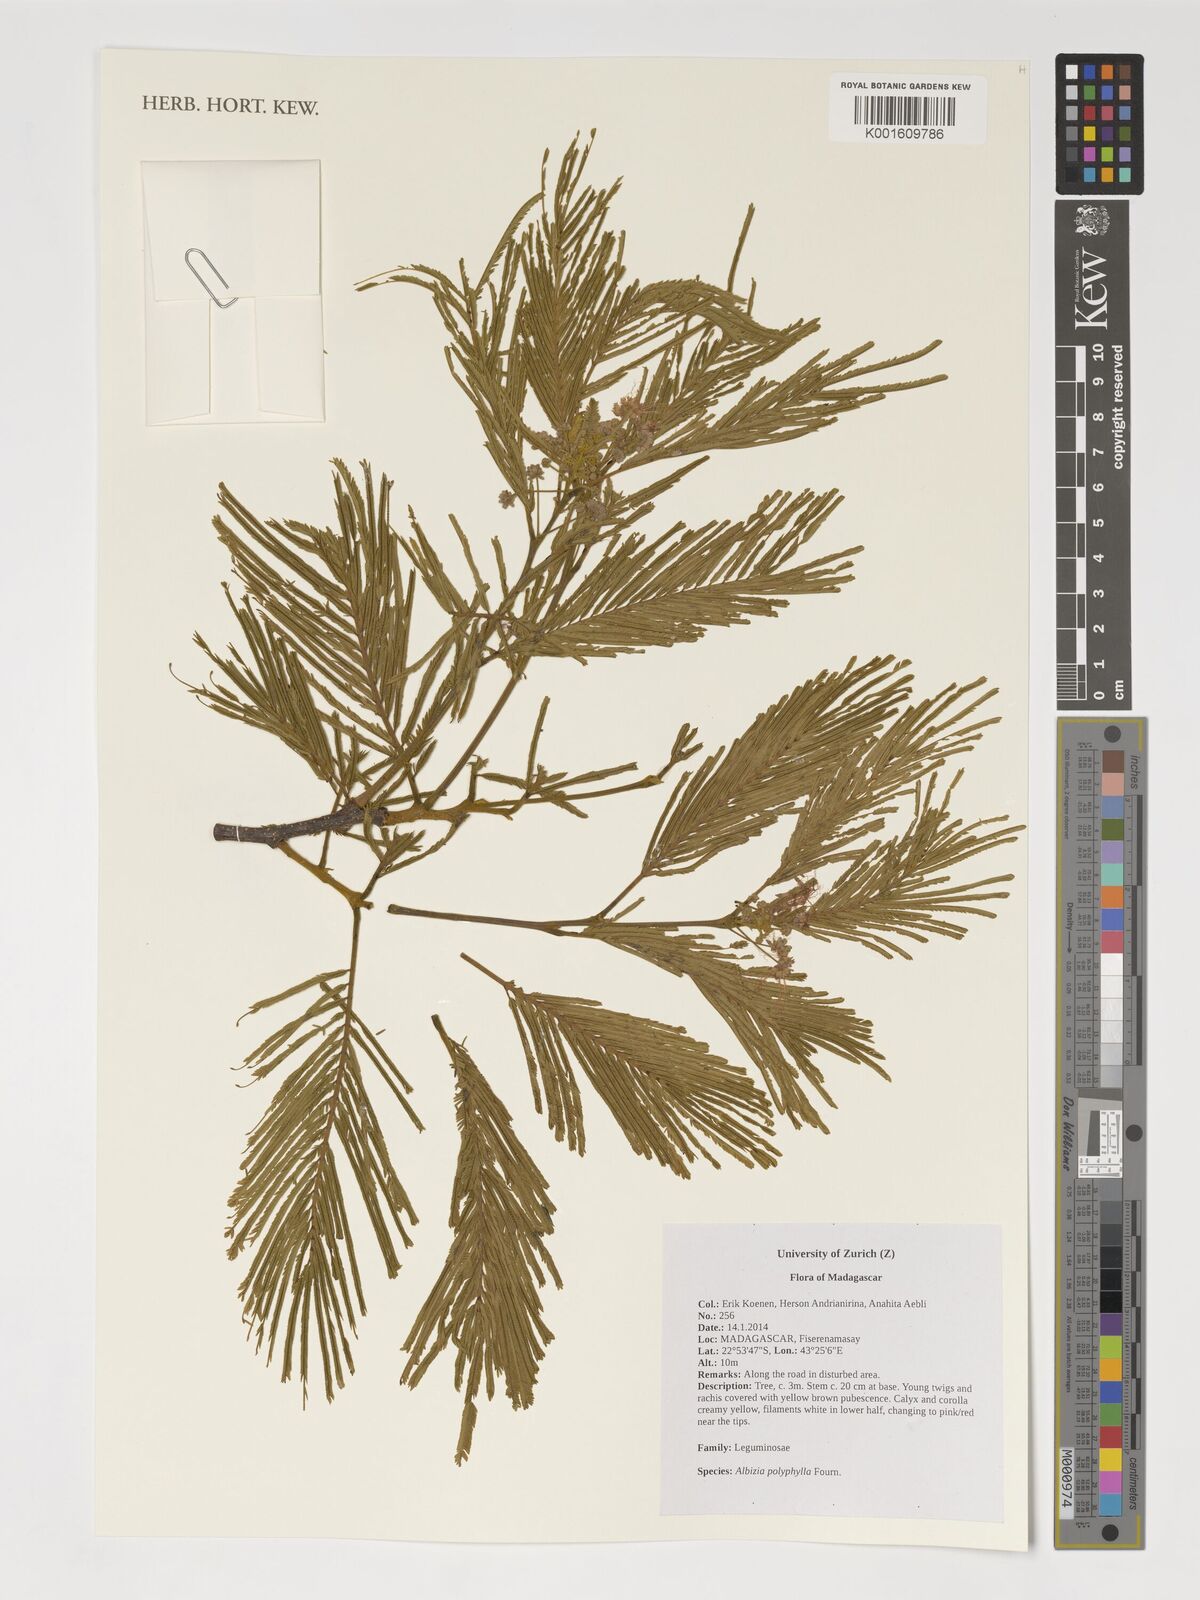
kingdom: Plantae
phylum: Tracheophyta
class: Magnoliopsida
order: Fabales
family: Fabaceae
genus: Albizia
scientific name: Albizia polyphylla
